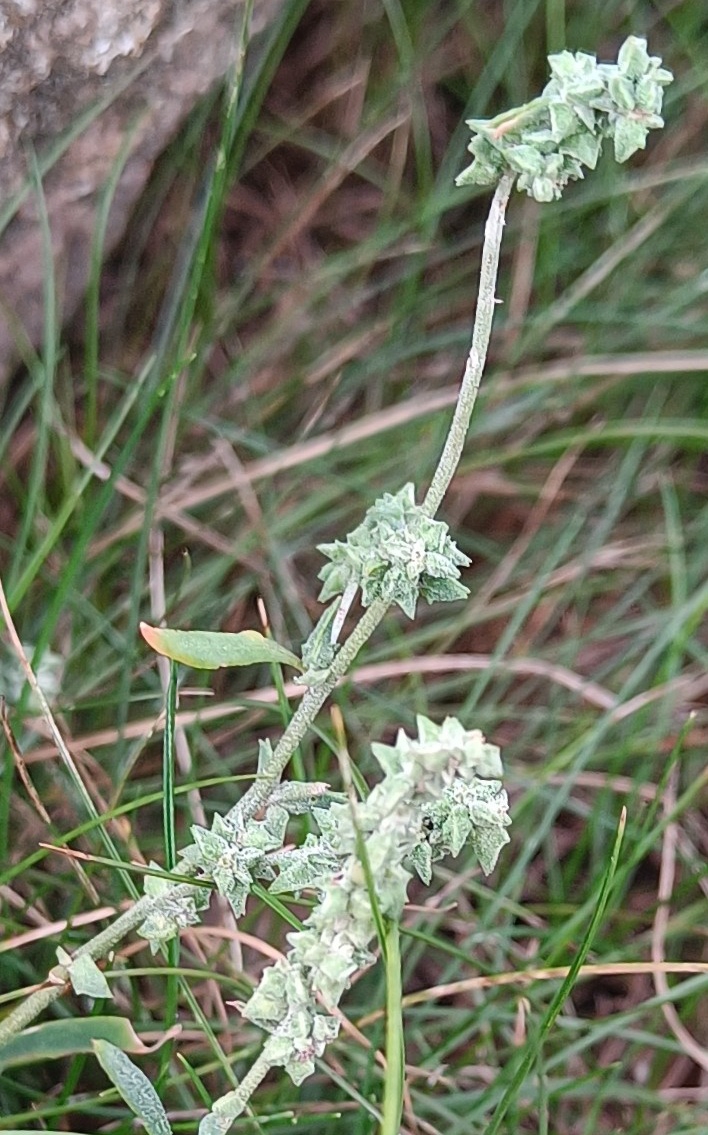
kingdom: Plantae
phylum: Tracheophyta
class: Magnoliopsida
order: Caryophyllales
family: Amaranthaceae
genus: Atriplex
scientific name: Atriplex
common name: Mældeslægten
